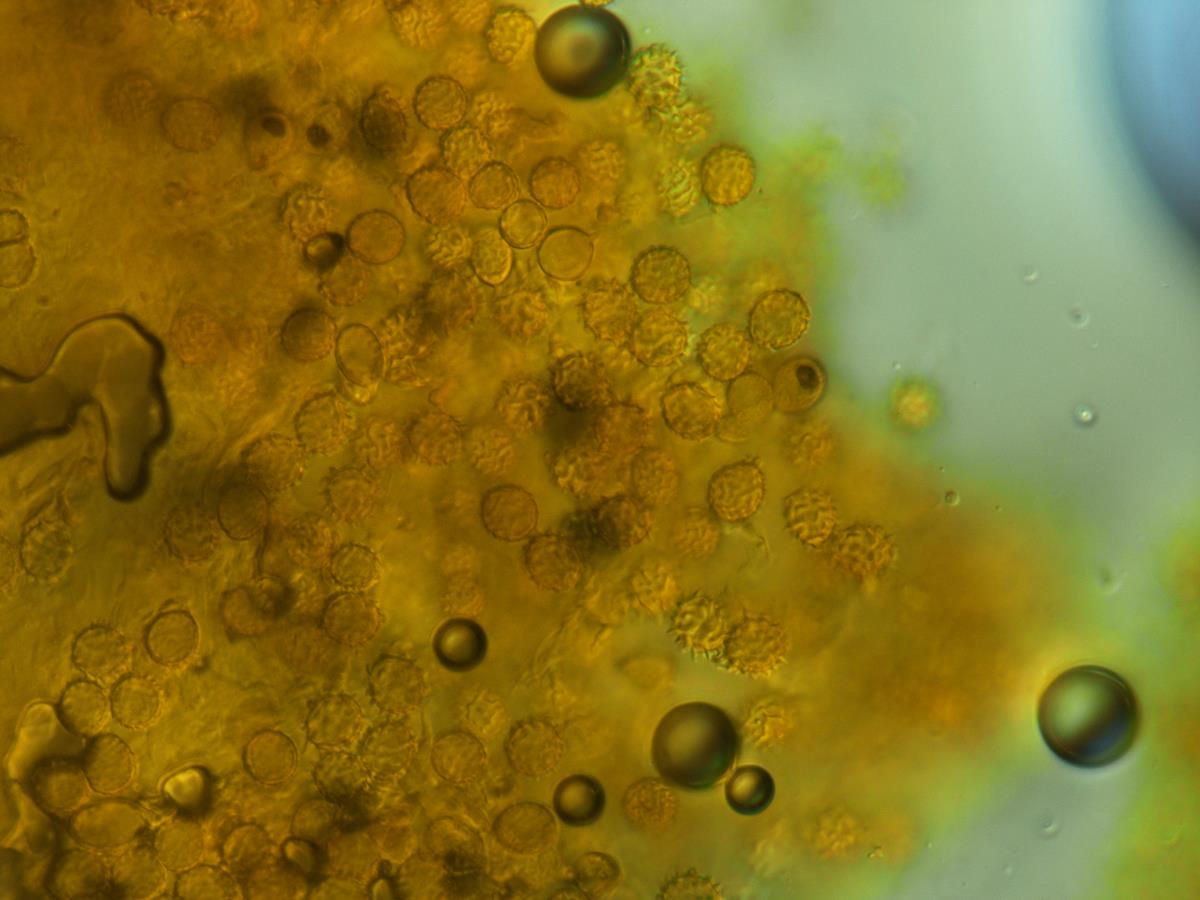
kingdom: Fungi
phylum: Basidiomycota
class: Agaricomycetes
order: Agaricales
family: Stephanosporaceae
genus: Stephanospora
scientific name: Stephanospora
